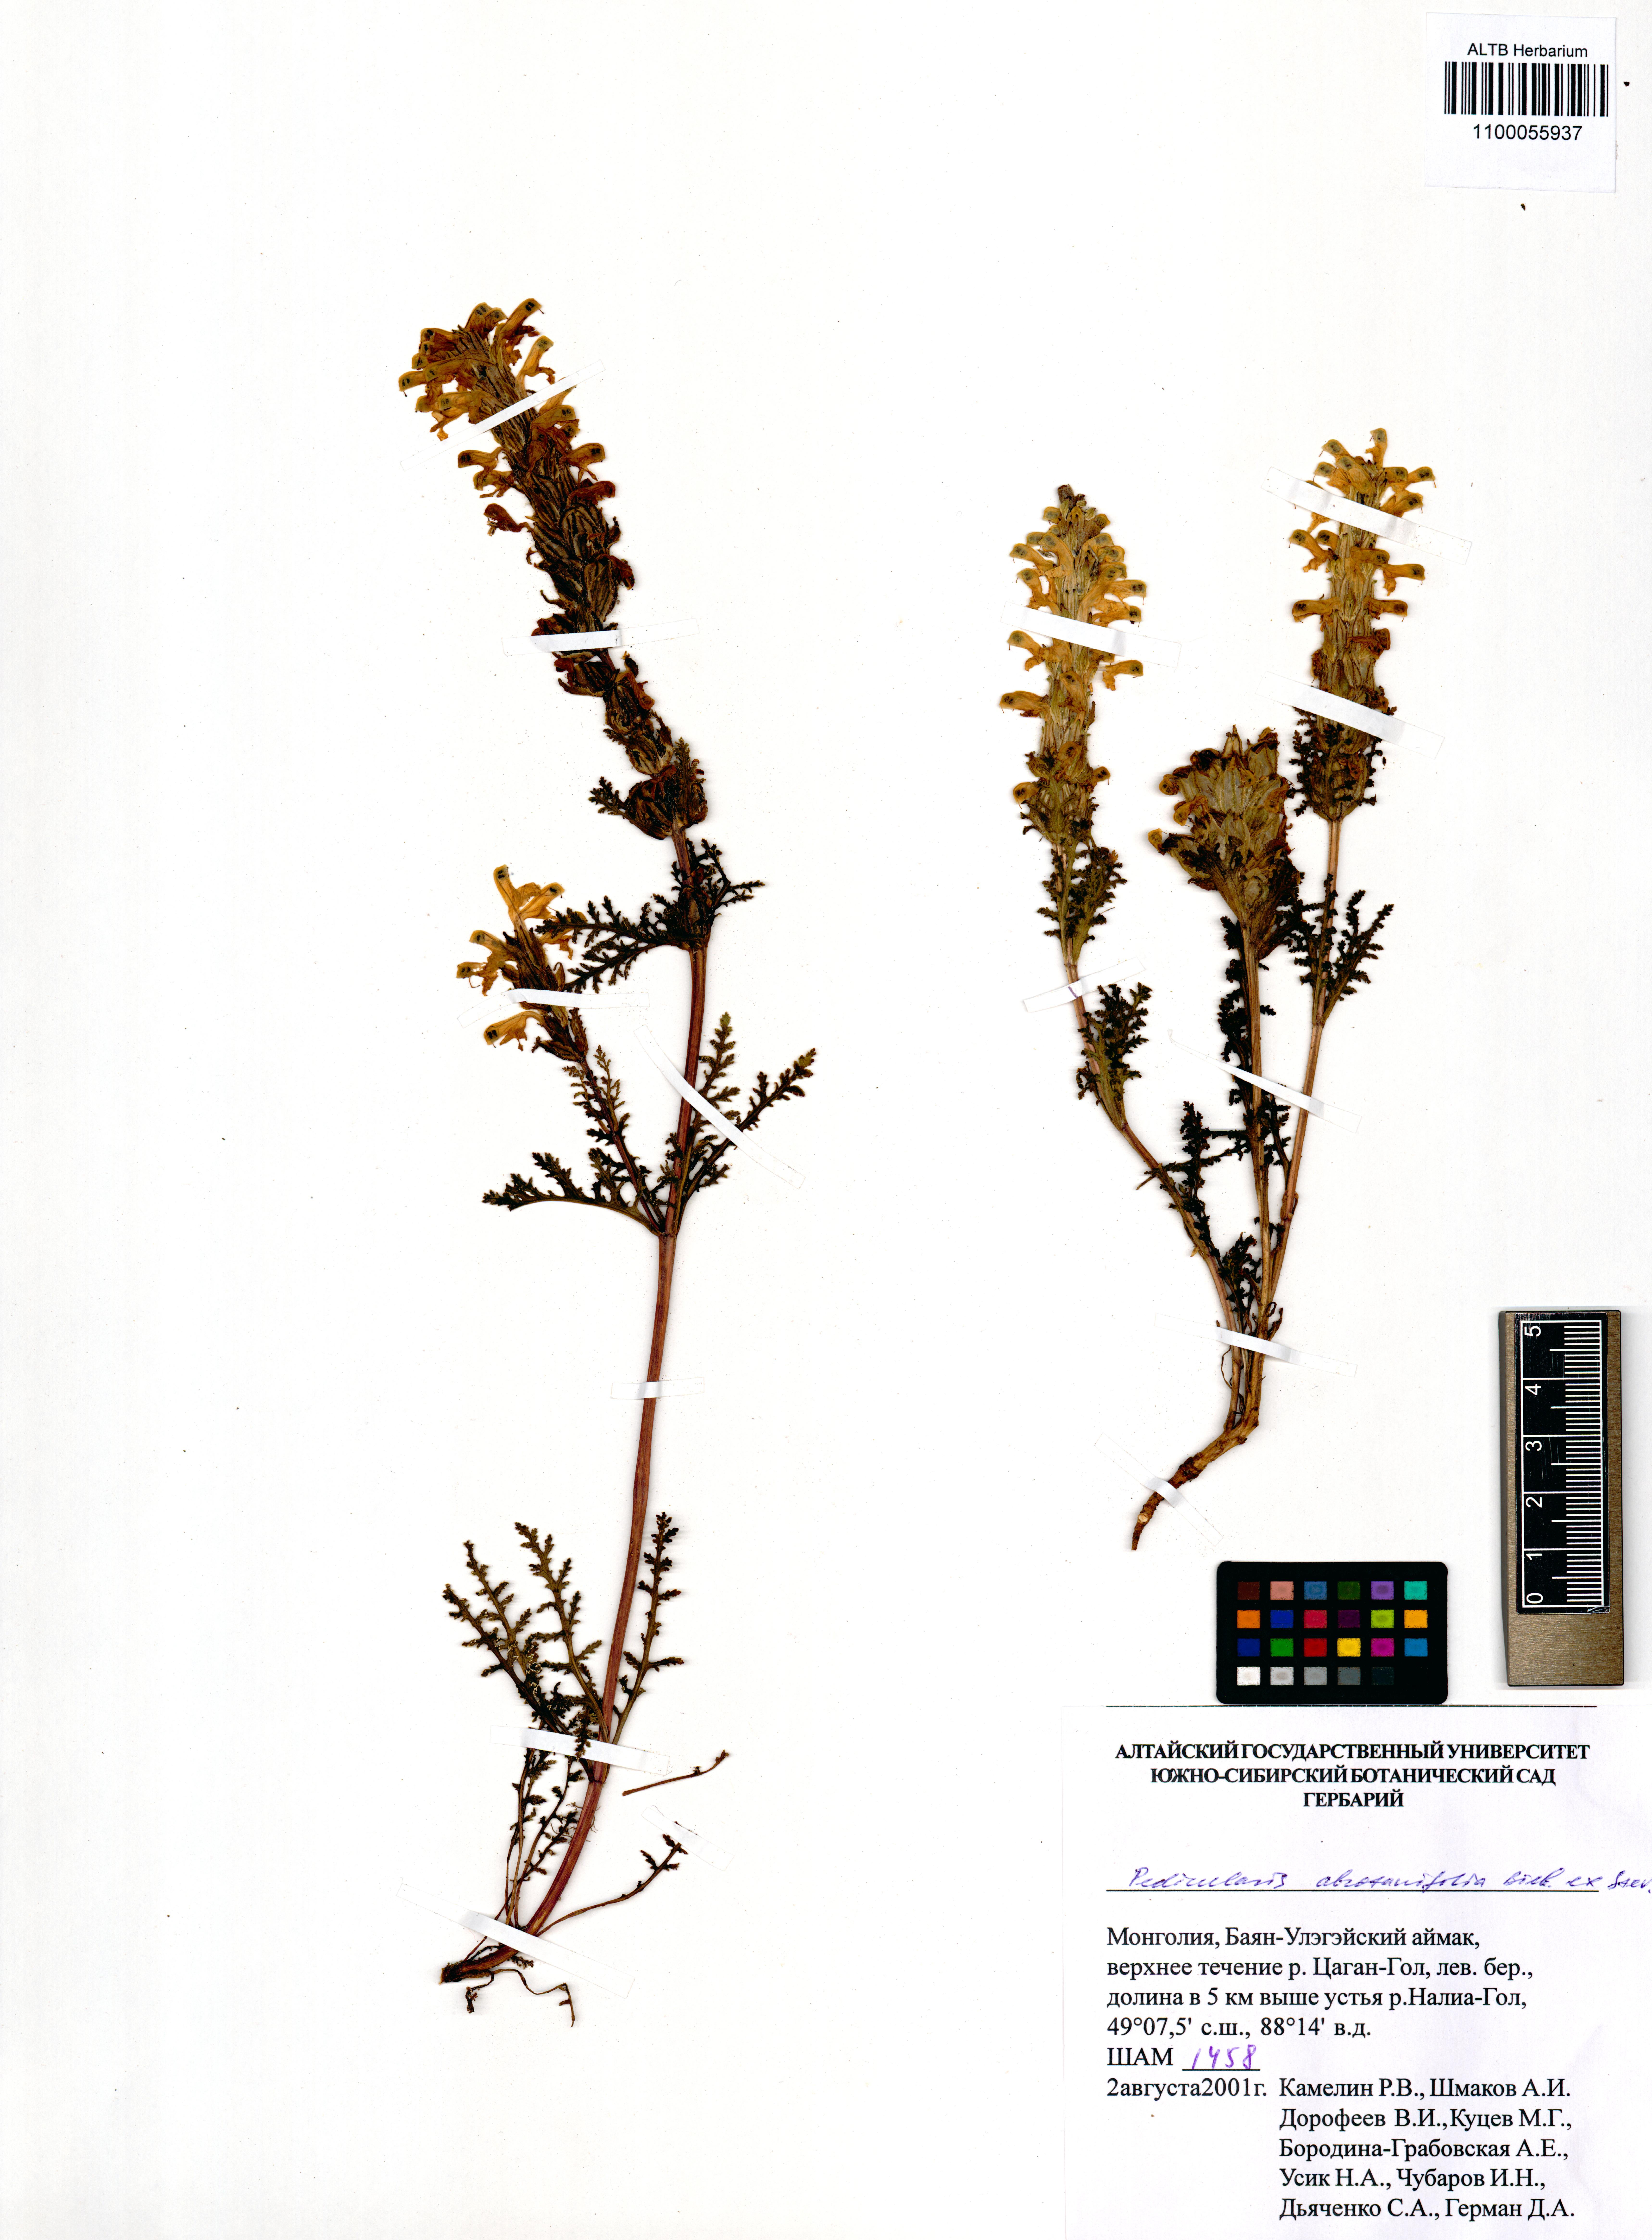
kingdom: Plantae
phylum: Tracheophyta
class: Magnoliopsida
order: Lamiales
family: Orobanchaceae
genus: Pedicularis
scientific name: Pedicularis abrotanifolia
